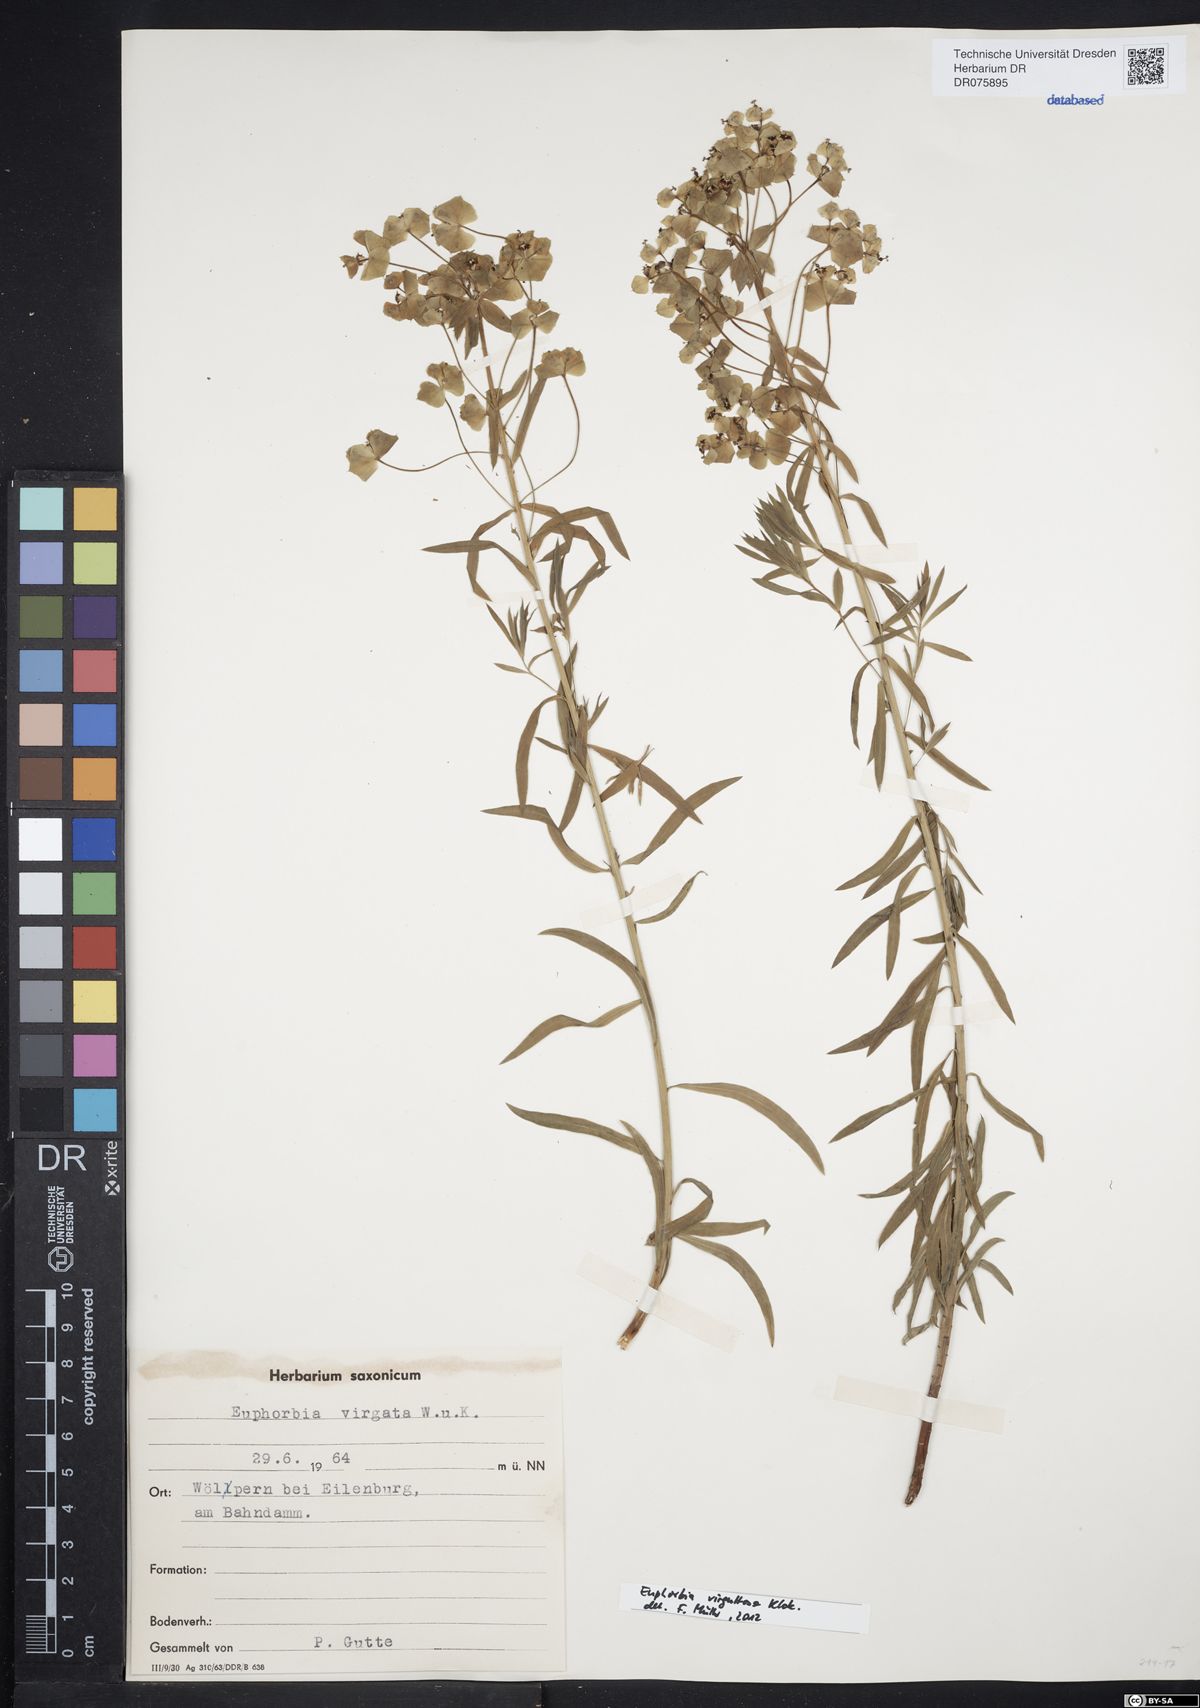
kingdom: Plantae
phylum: Tracheophyta
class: Magnoliopsida
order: Malpighiales
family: Euphorbiaceae
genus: Euphorbia
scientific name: Euphorbia saratoi
